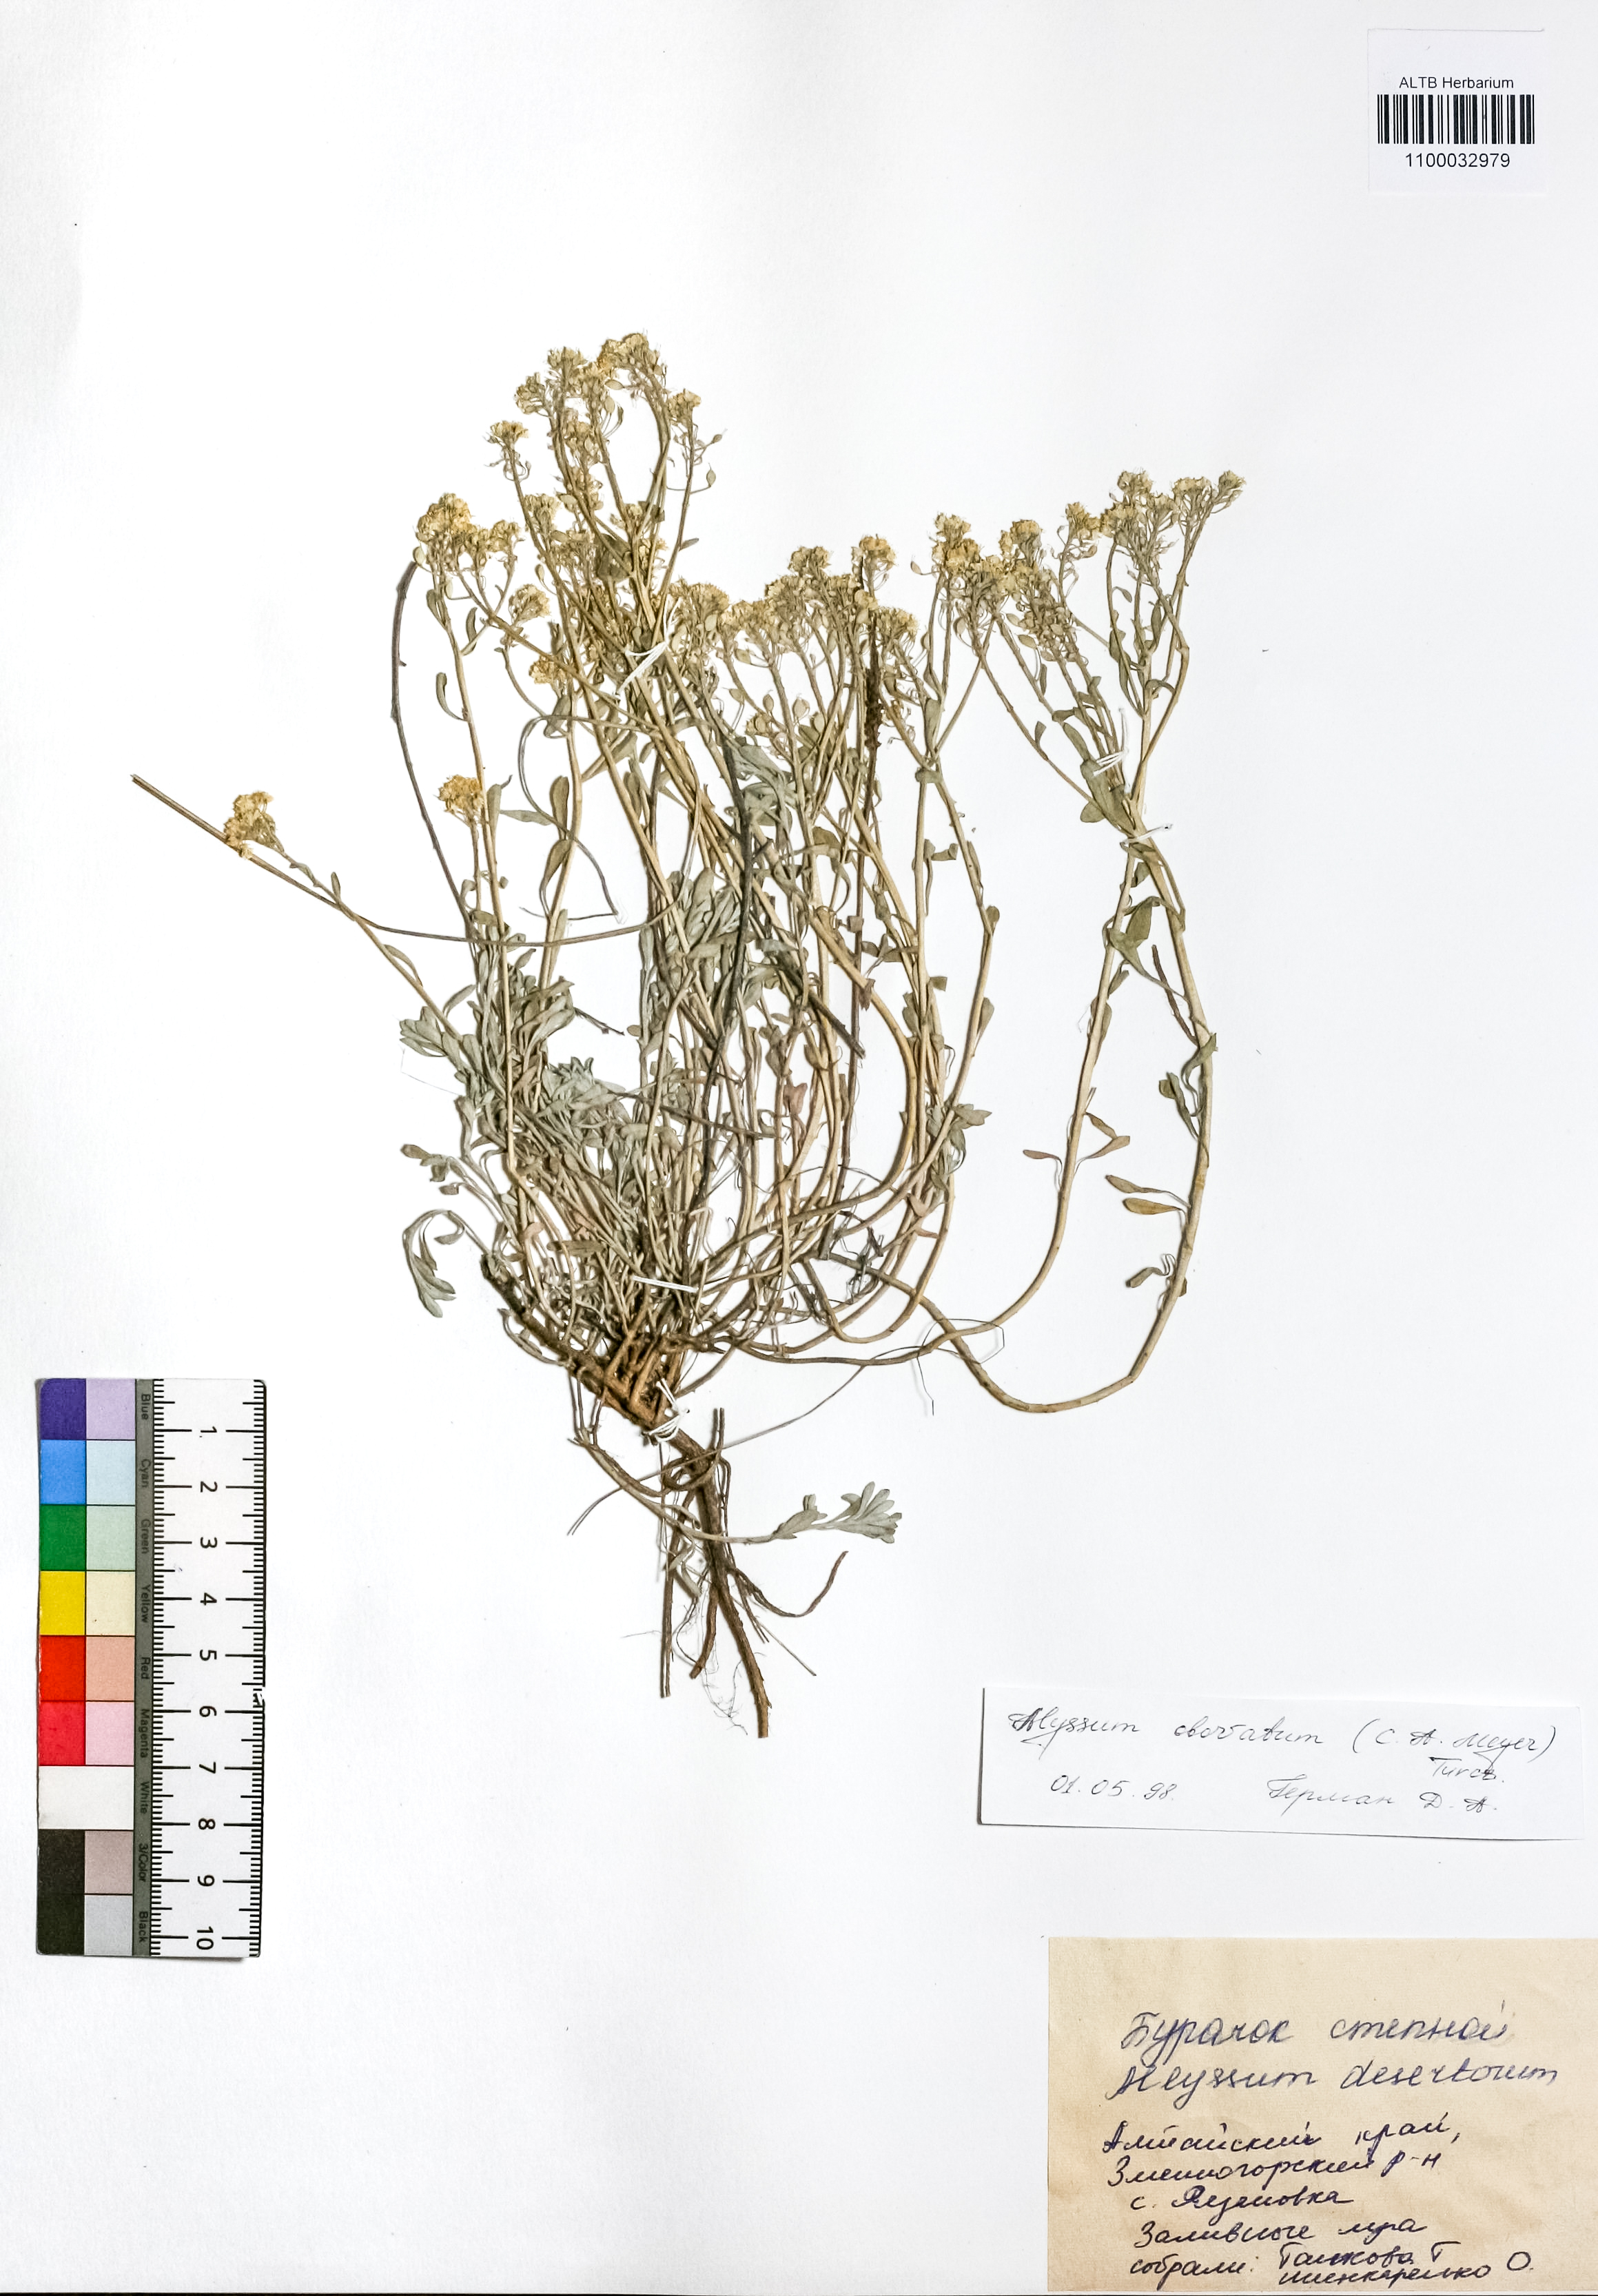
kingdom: Plantae
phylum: Tracheophyta
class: Magnoliopsida
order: Brassicales
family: Brassicaceae
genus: Odontarrhena
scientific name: Odontarrhena obovata
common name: American alyssum
